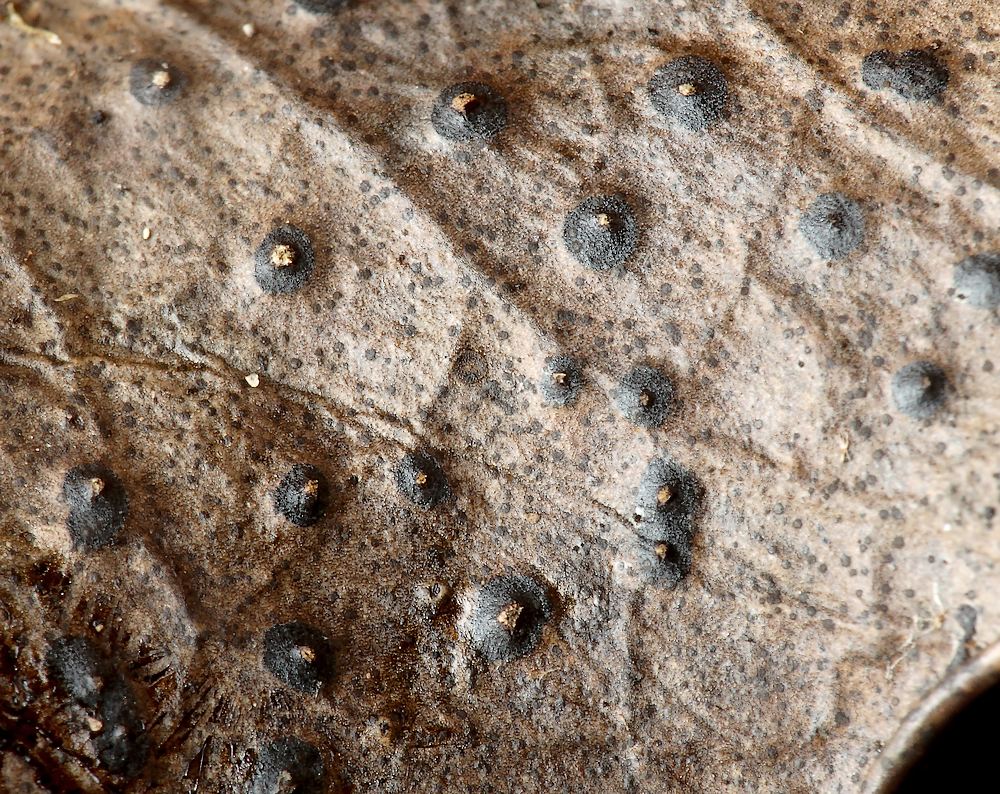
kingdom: Fungi
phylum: Ascomycota
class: Leotiomycetes
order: Phacidiales
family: Phacidiaceae
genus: Phacidium
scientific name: Phacidium lauri
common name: kristtorn-tandskive
